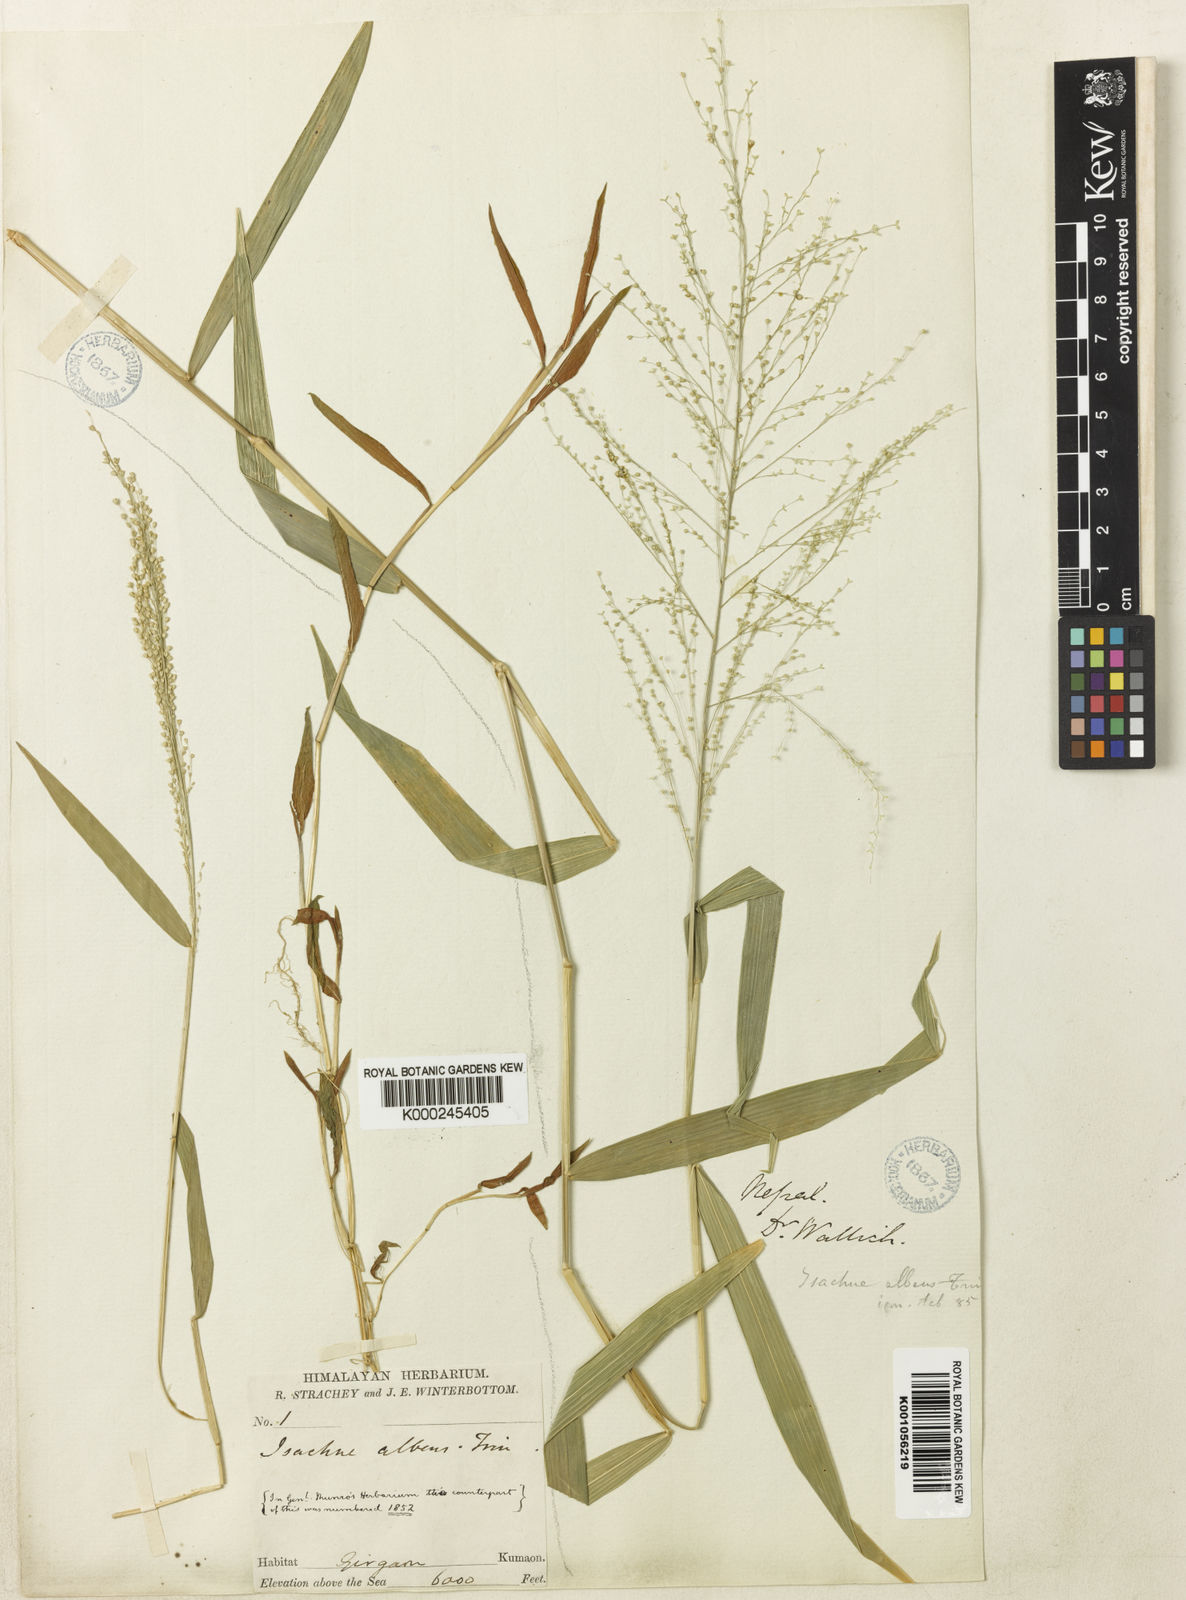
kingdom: Plantae
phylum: Tracheophyta
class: Liliopsida
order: Poales
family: Poaceae
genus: Isachne
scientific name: Isachne albens
